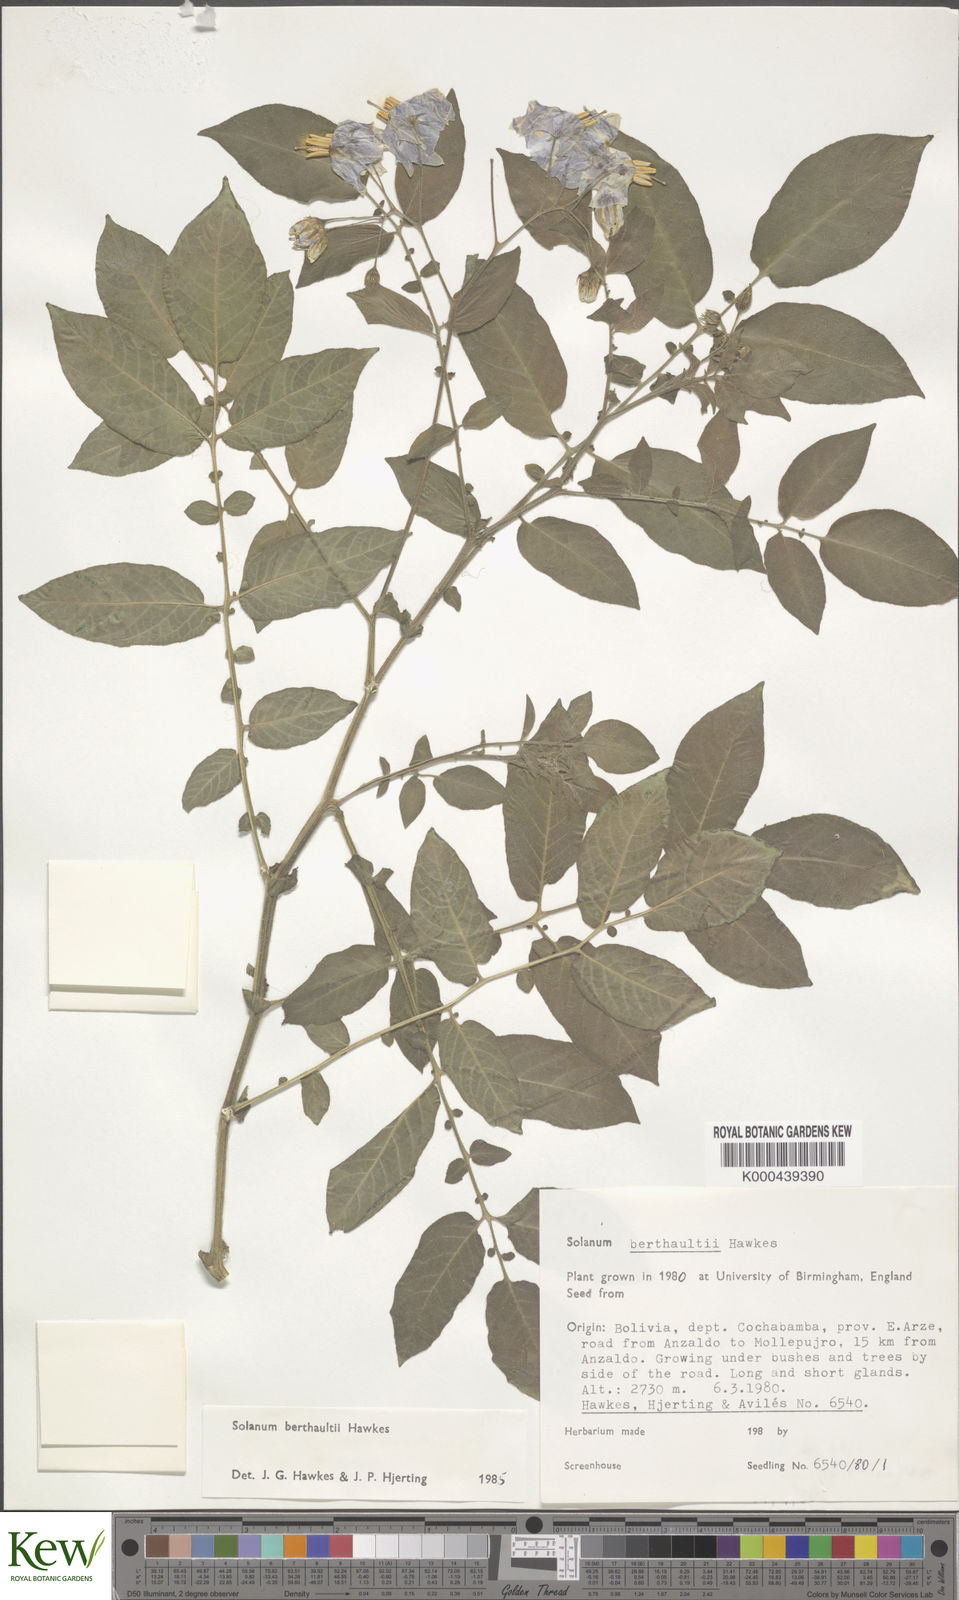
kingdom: Plantae
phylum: Tracheophyta
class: Magnoliopsida
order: Solanales
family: Solanaceae
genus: Solanum
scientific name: Solanum berthaultii
